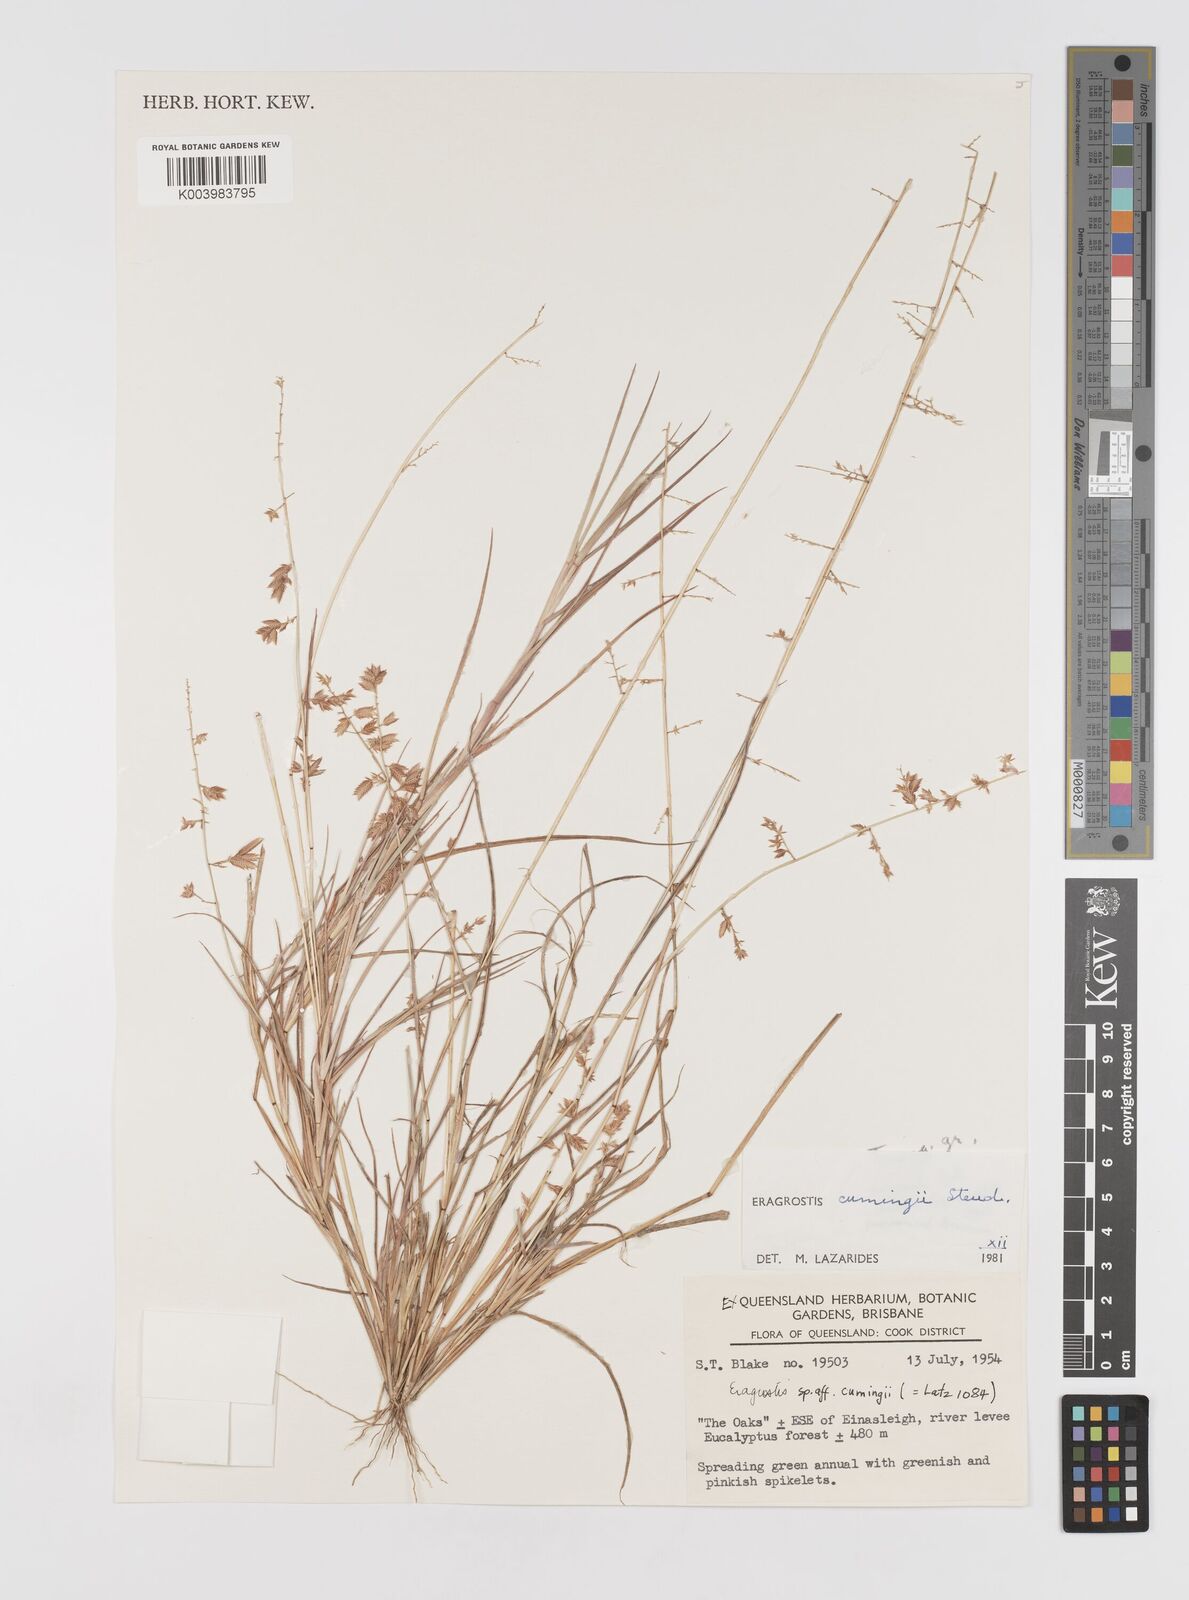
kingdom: Plantae
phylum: Tracheophyta
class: Liliopsida
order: Poales
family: Poaceae
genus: Eragrostis
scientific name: Eragrostis cumingii
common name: Cuming's lovegrass
